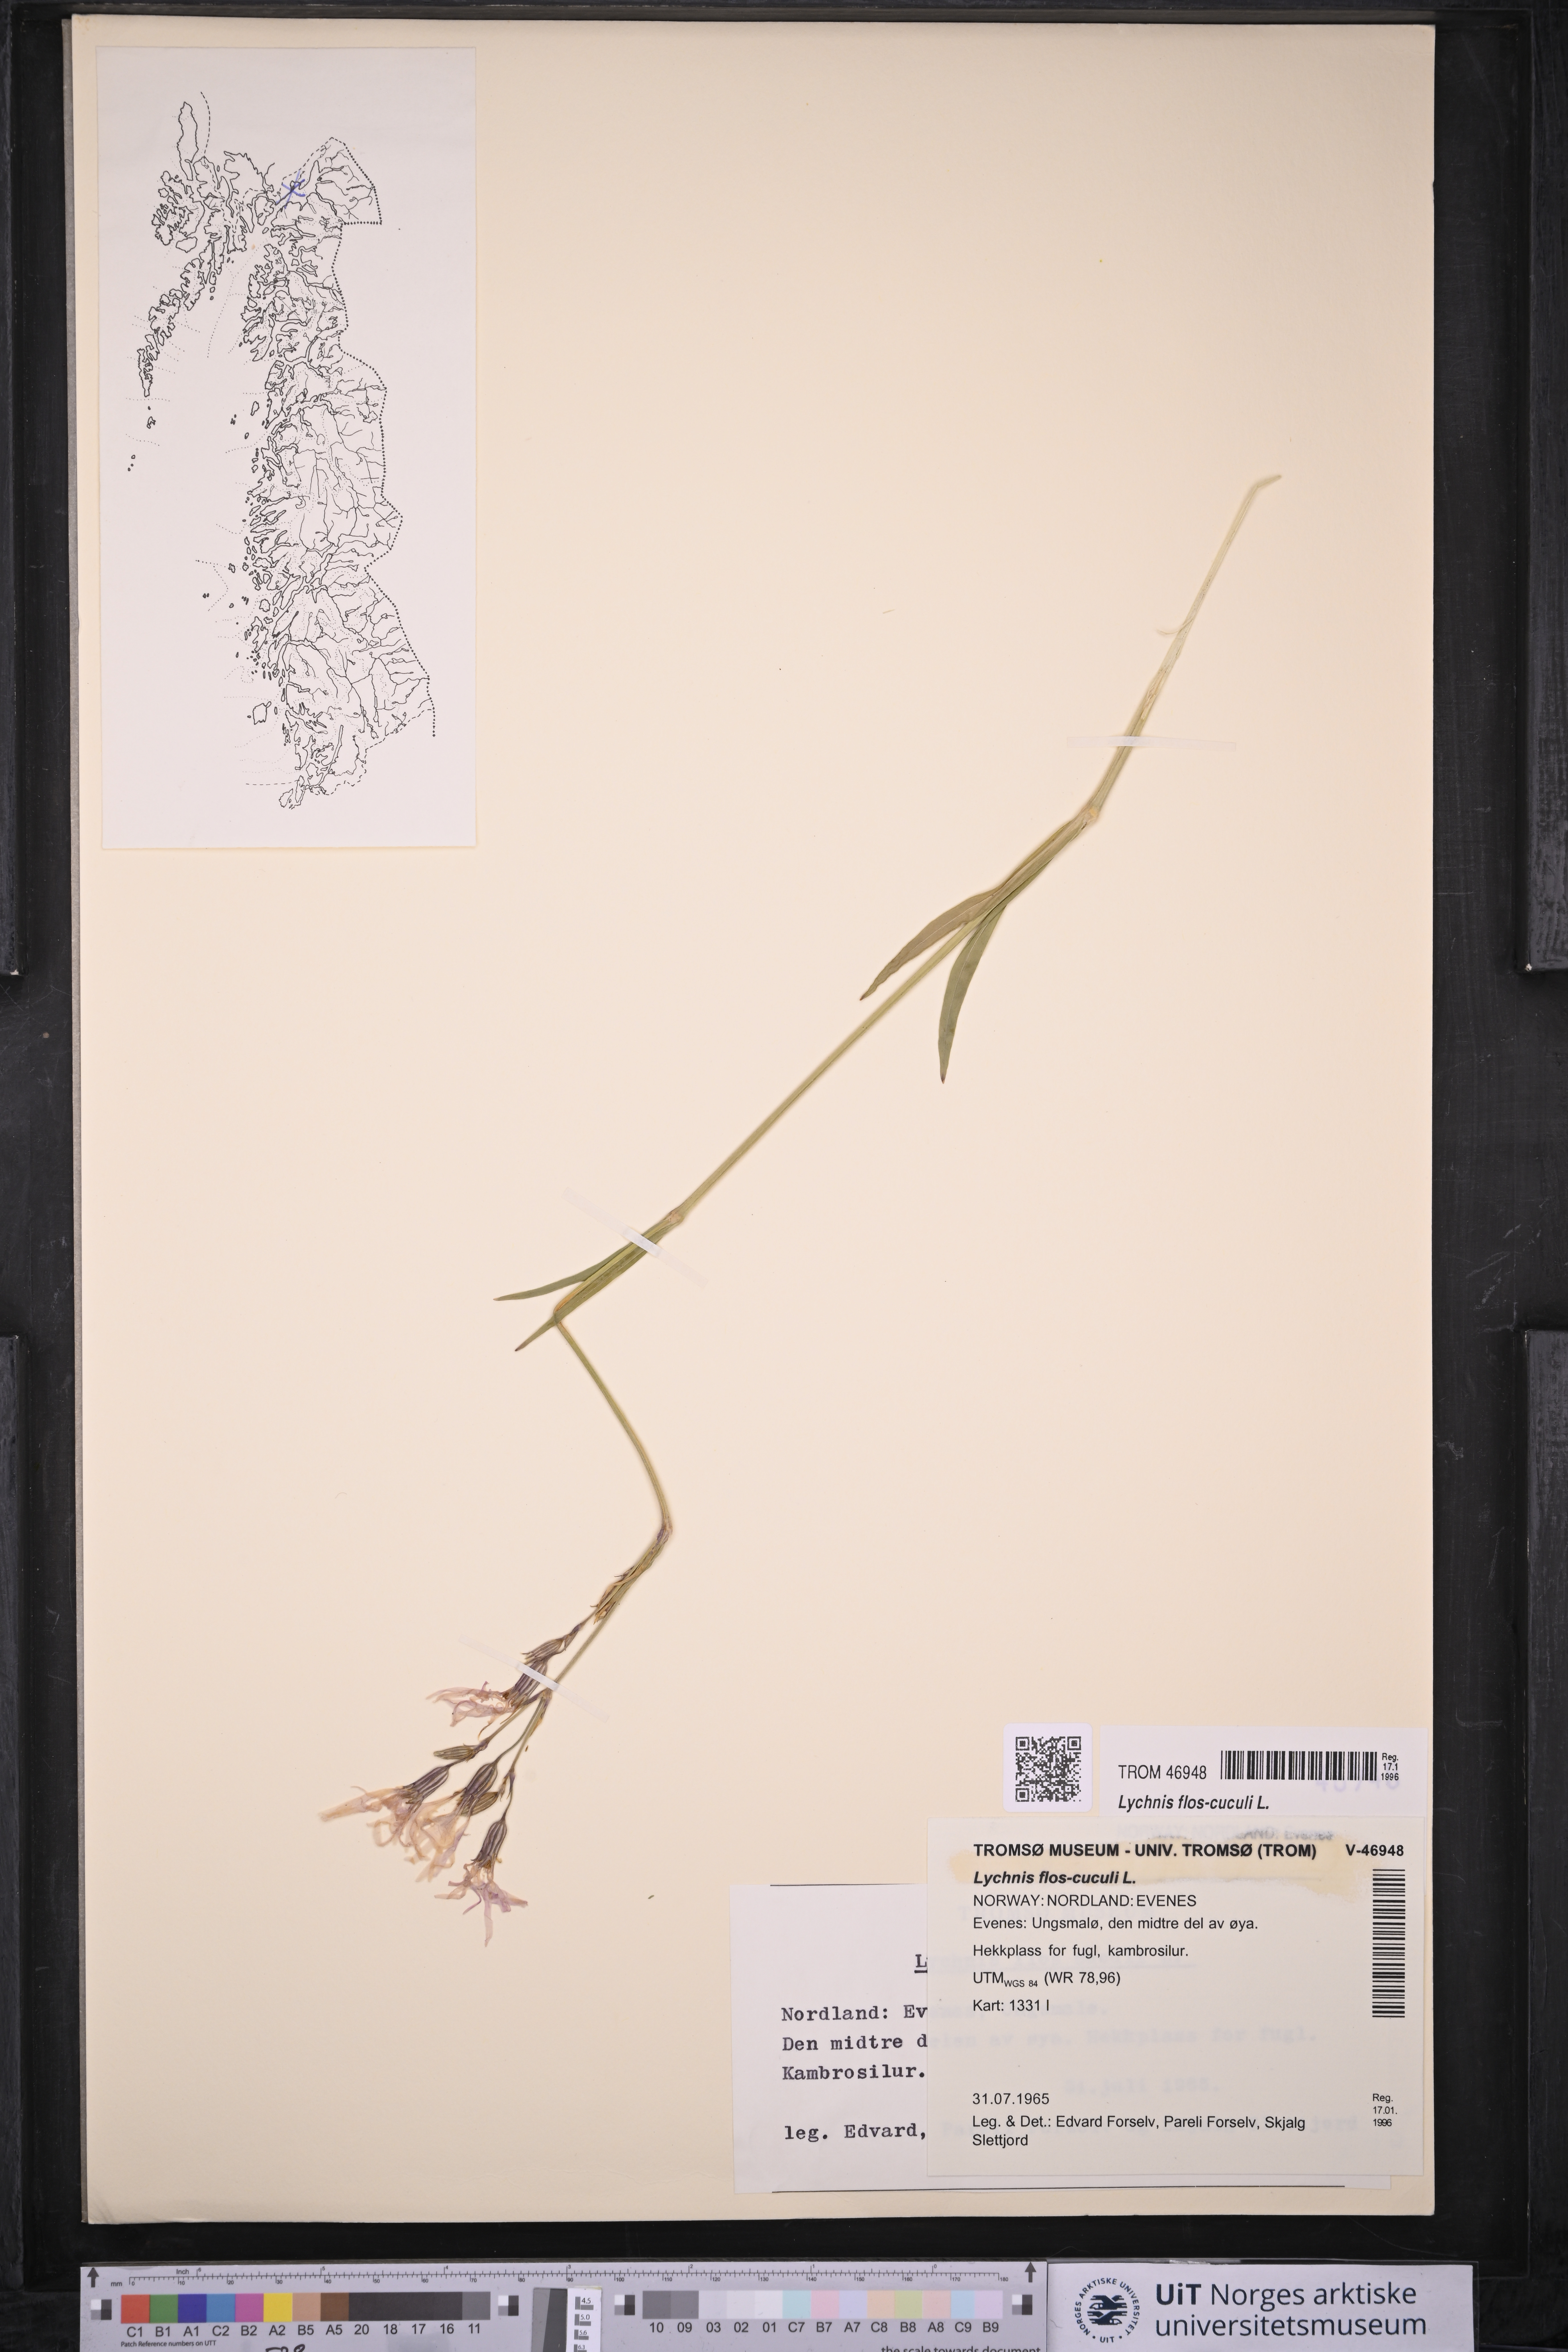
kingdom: Plantae
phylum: Tracheophyta
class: Magnoliopsida
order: Caryophyllales
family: Caryophyllaceae
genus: Silene
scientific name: Silene flos-cuculi
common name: Ragged-robin
